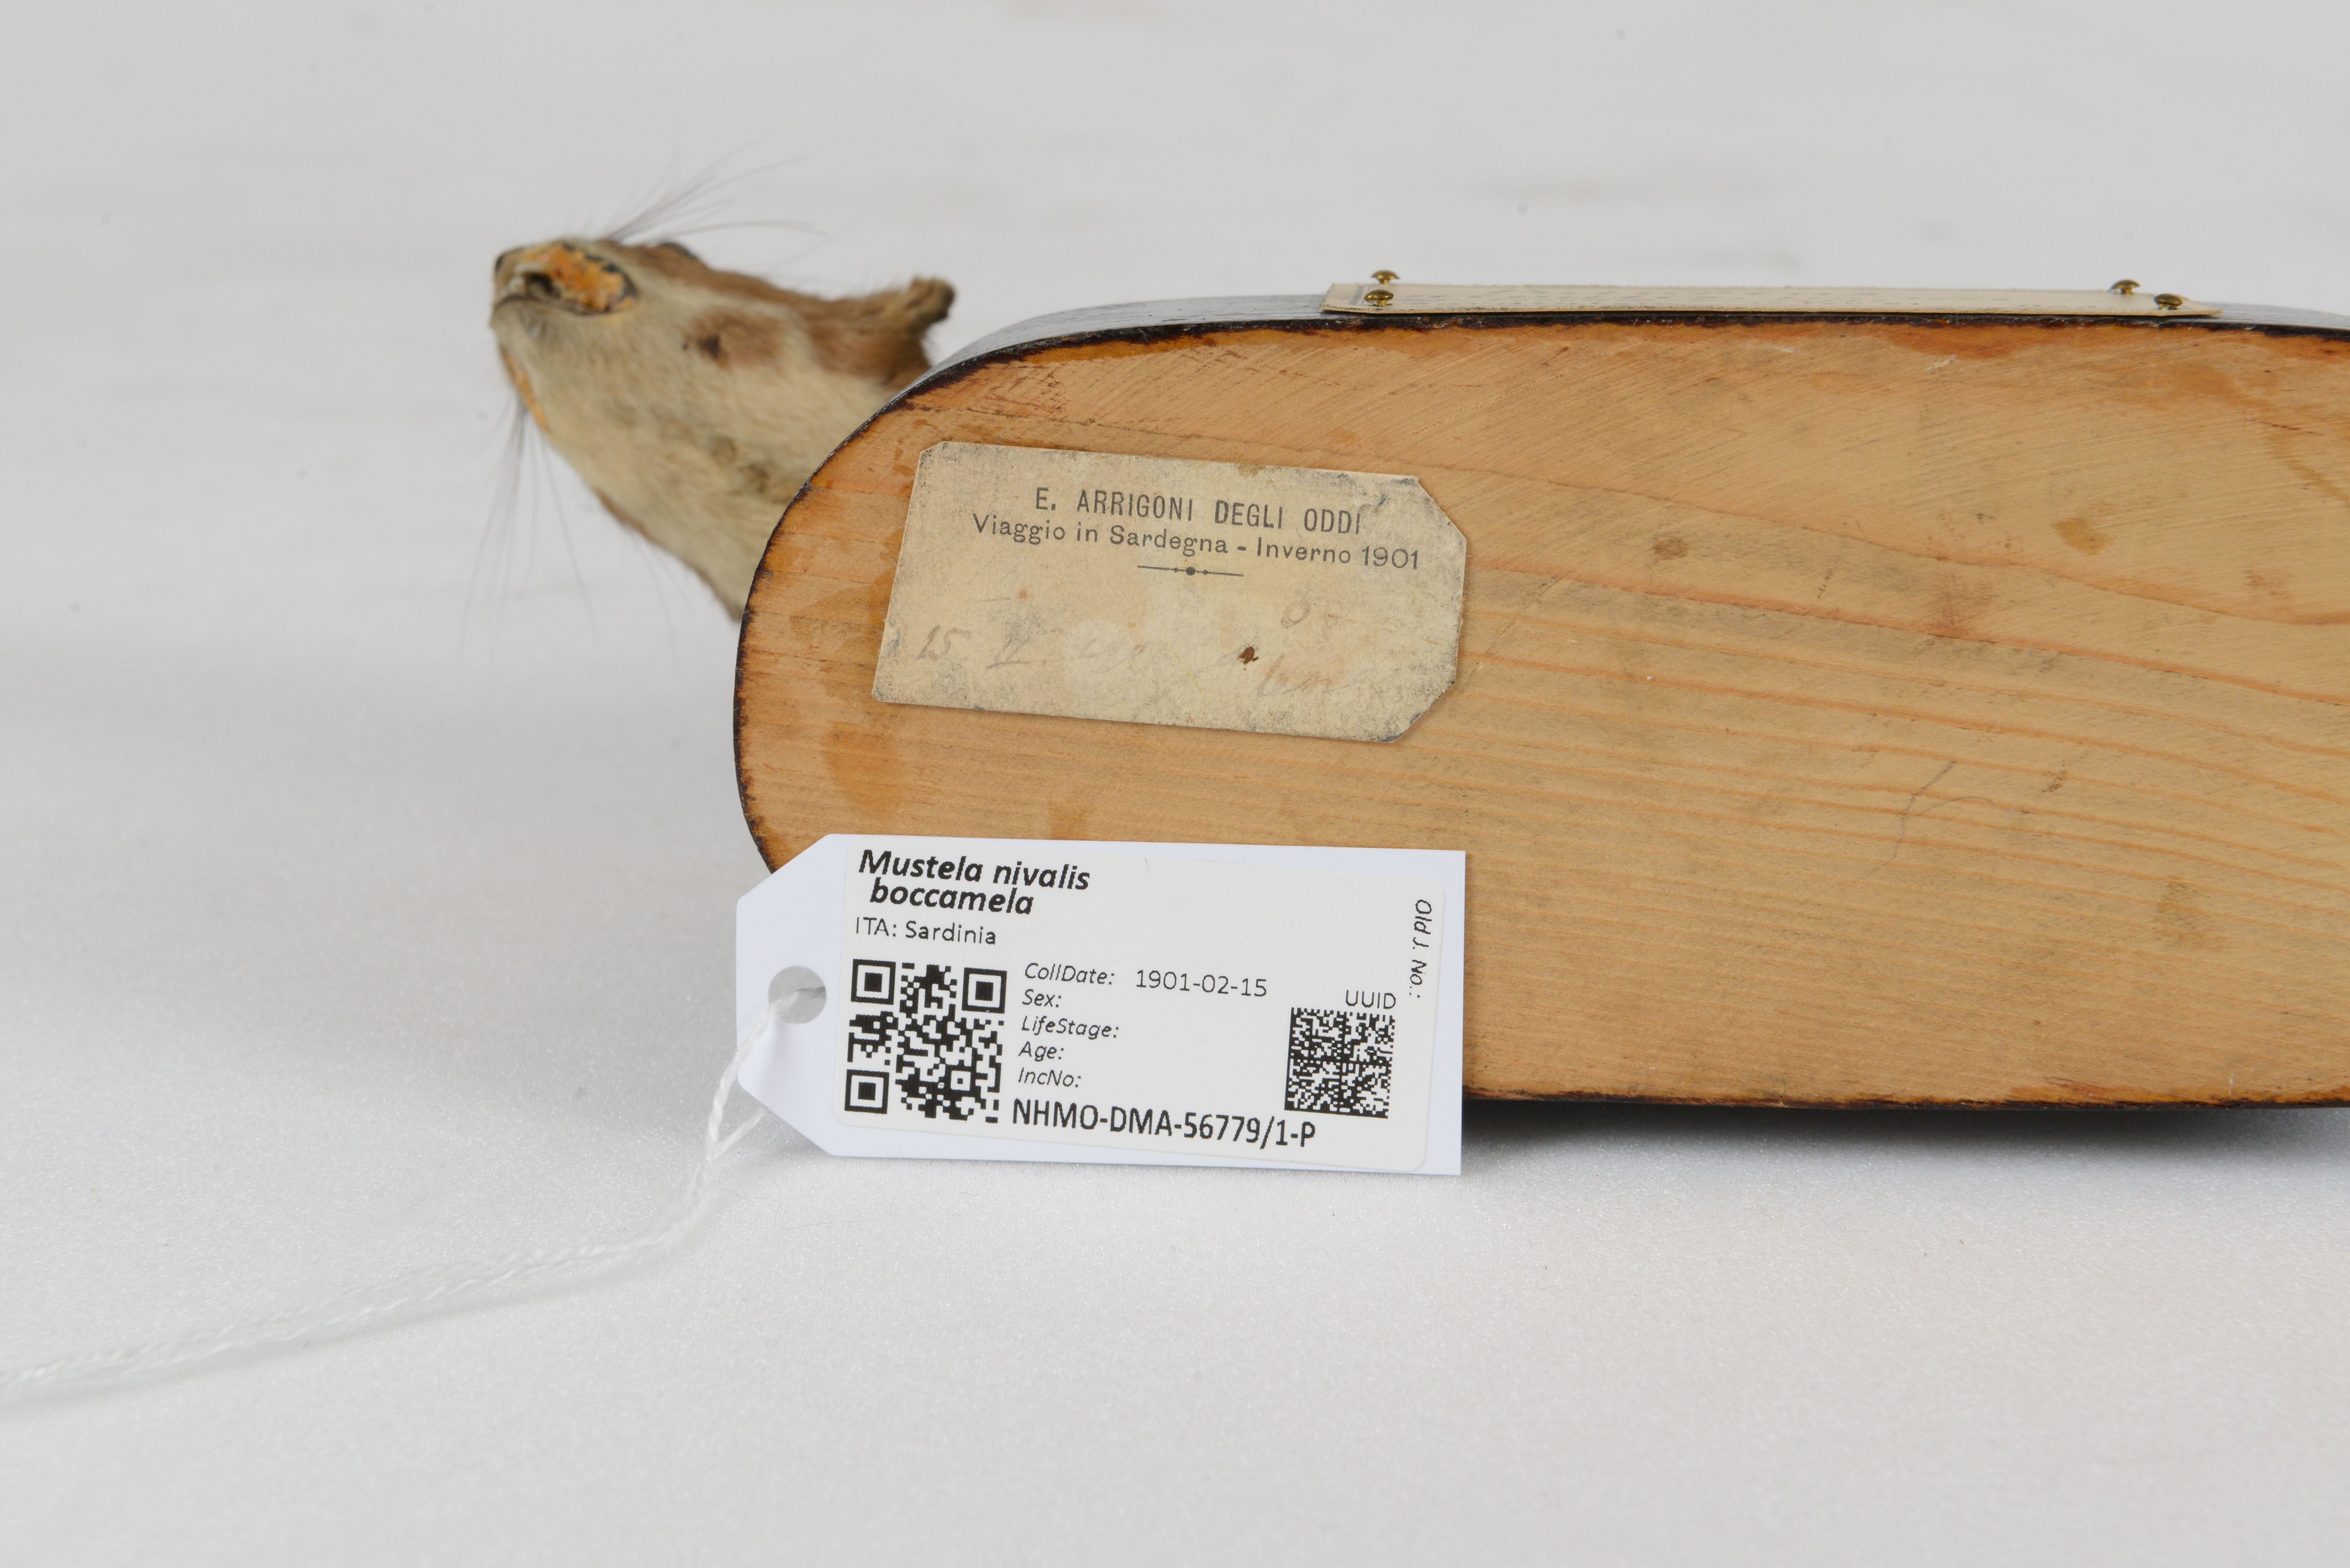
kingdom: Animalia
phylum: Chordata
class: Mammalia
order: Carnivora
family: Mustelidae
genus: Mustela
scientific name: Mustela nivalis
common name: Least weasel
